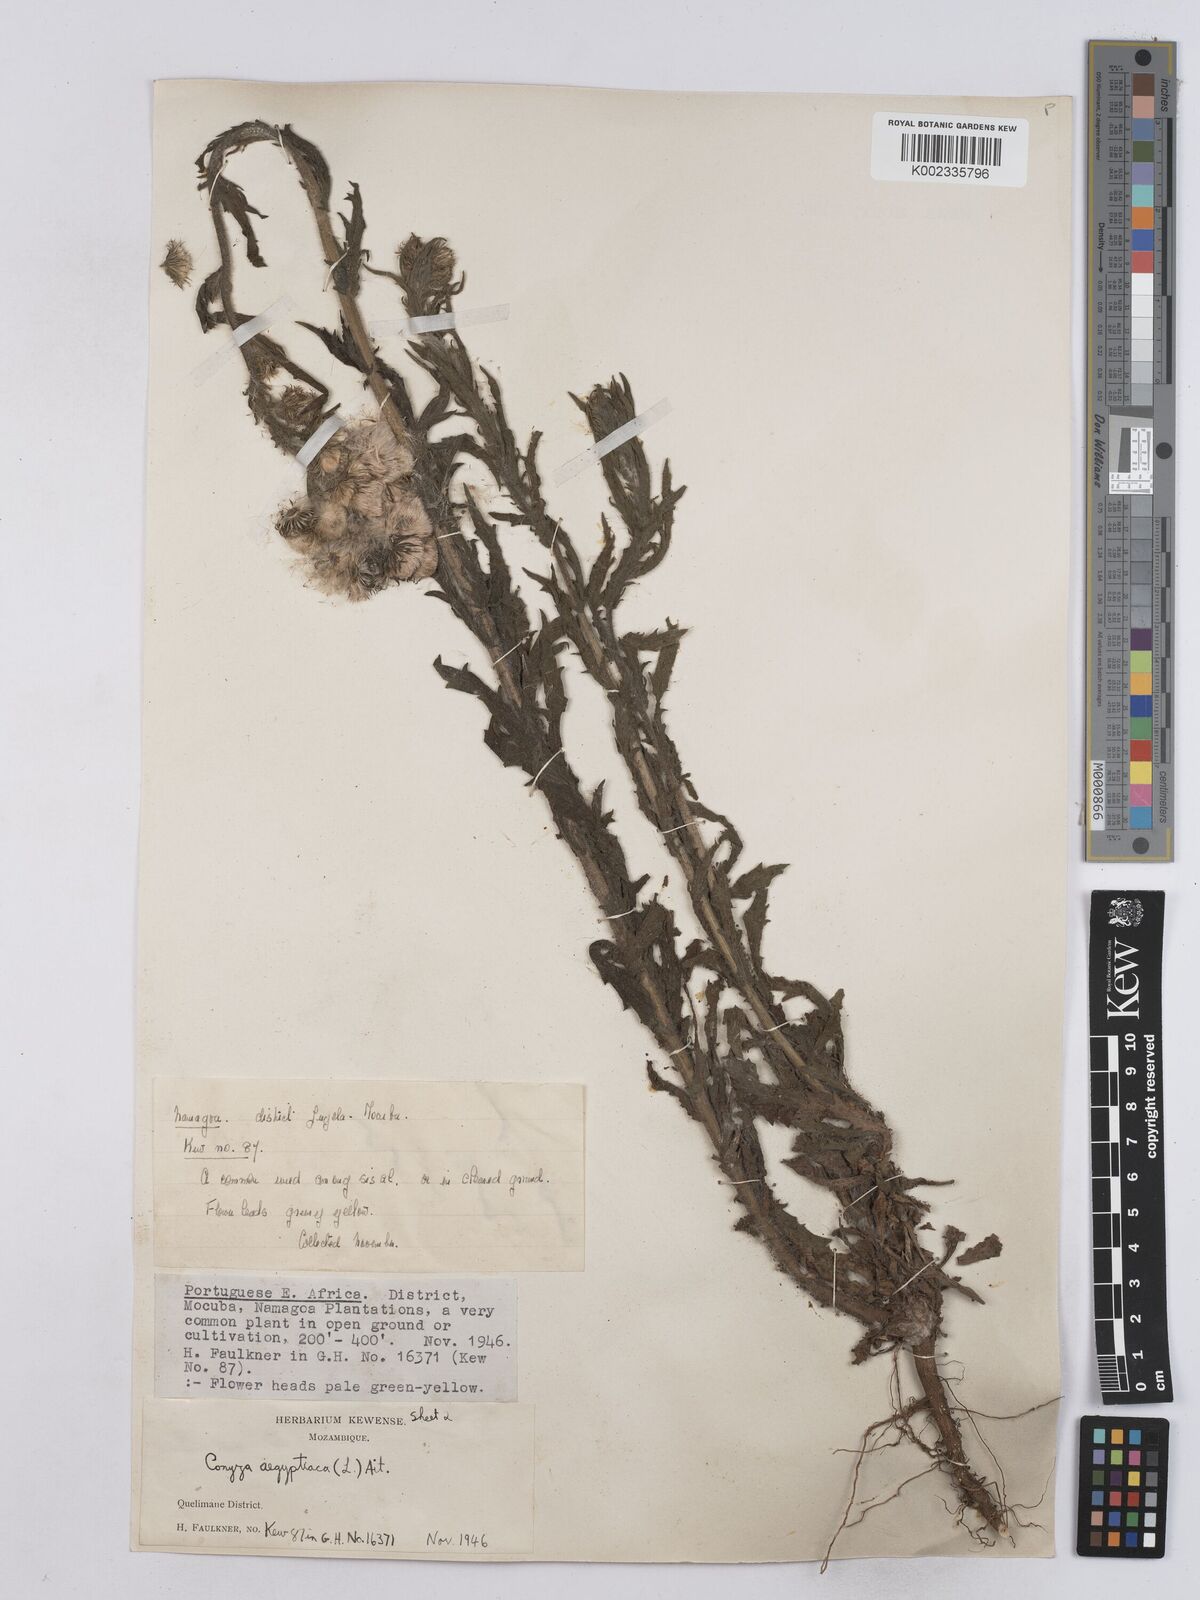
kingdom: Plantae
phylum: Tracheophyta
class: Magnoliopsida
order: Asterales
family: Asteraceae
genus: Nidorella
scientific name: Nidorella aegyptiaca
